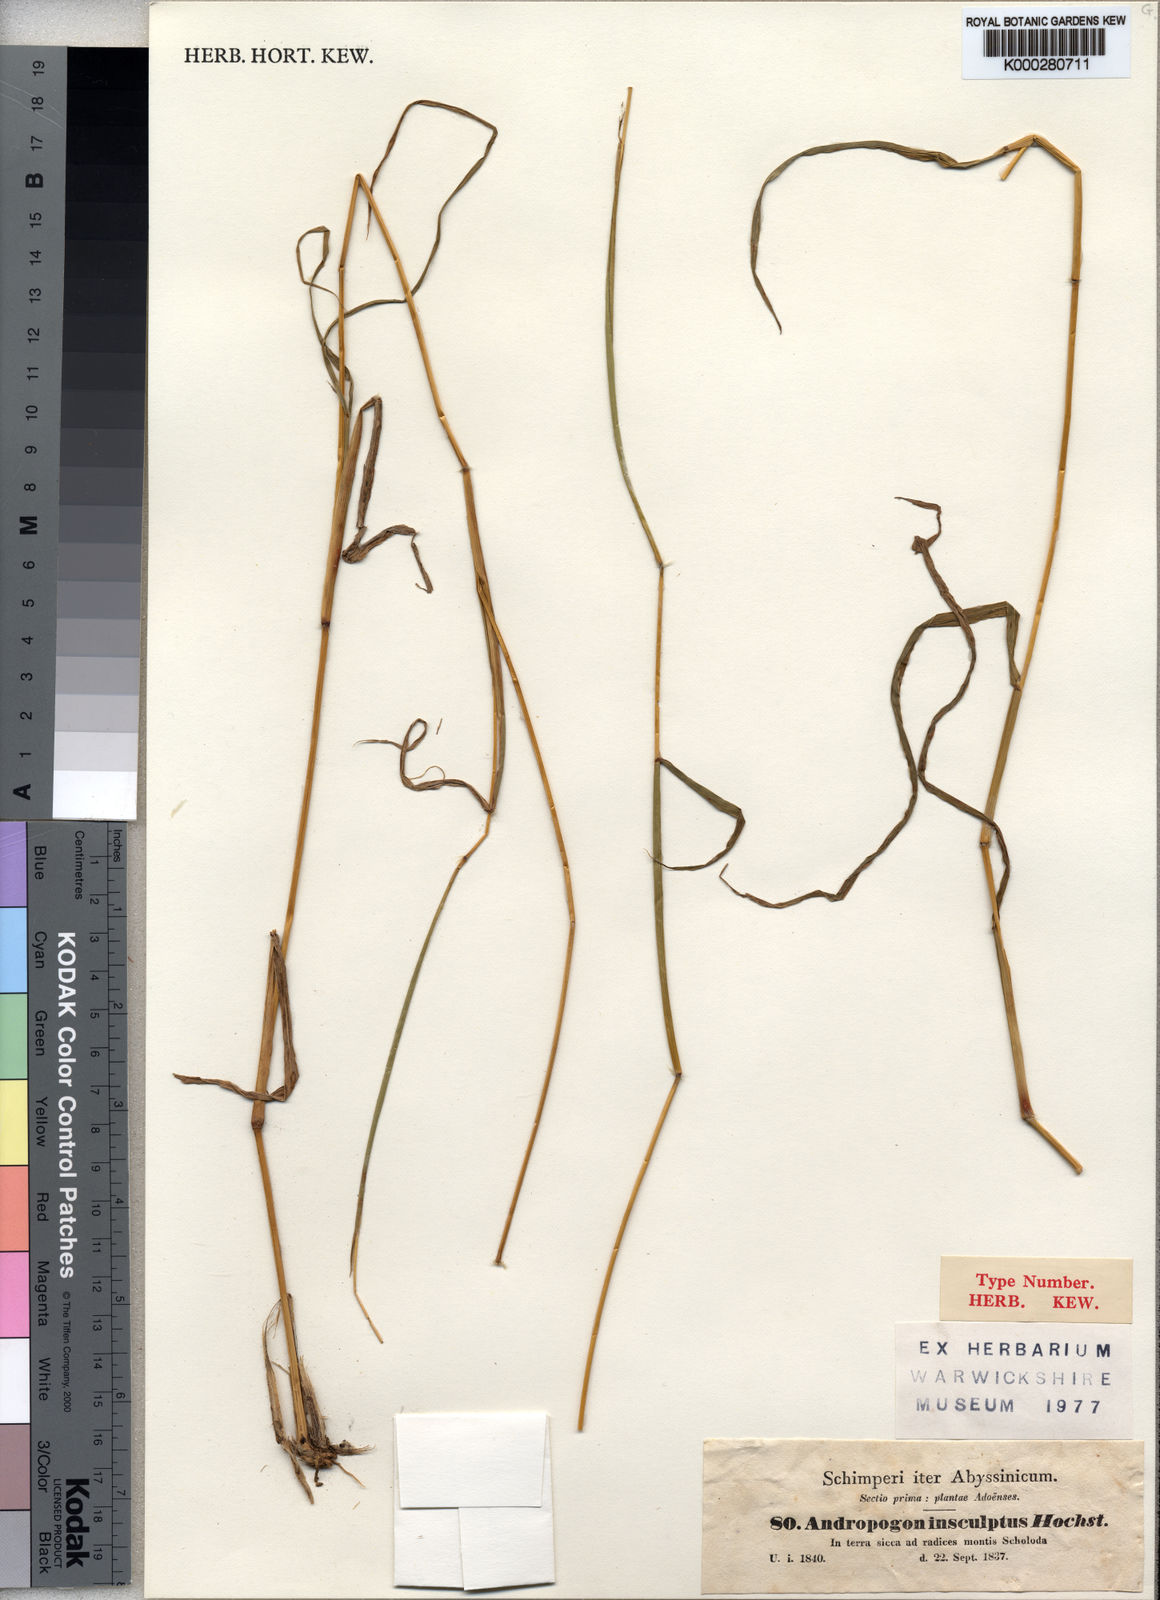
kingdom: Plantae
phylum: Tracheophyta
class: Liliopsida
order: Poales
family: Poaceae
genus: Bothriochloa
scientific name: Bothriochloa insculpta
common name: Creeping-bluegrass
